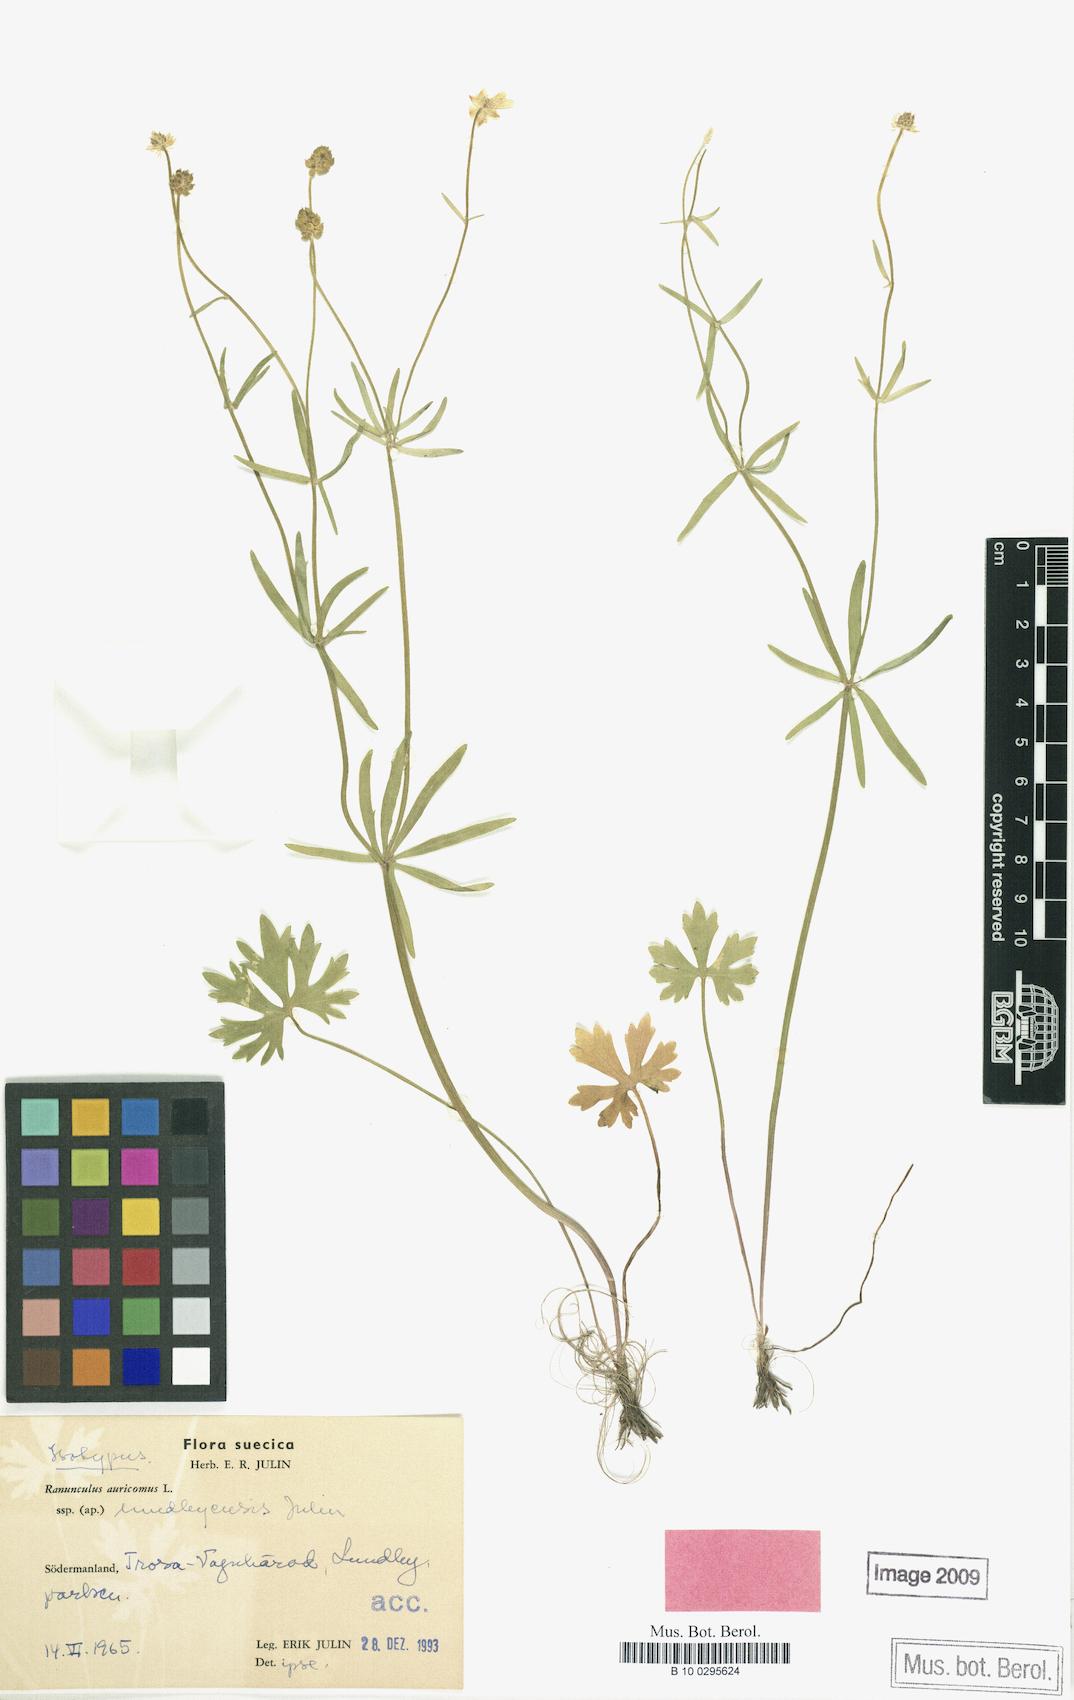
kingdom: Plantae
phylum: Tracheophyta
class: Magnoliopsida
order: Ranunculales
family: Ranunculaceae
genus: Ranunculus
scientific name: Ranunculus lundbyensis
